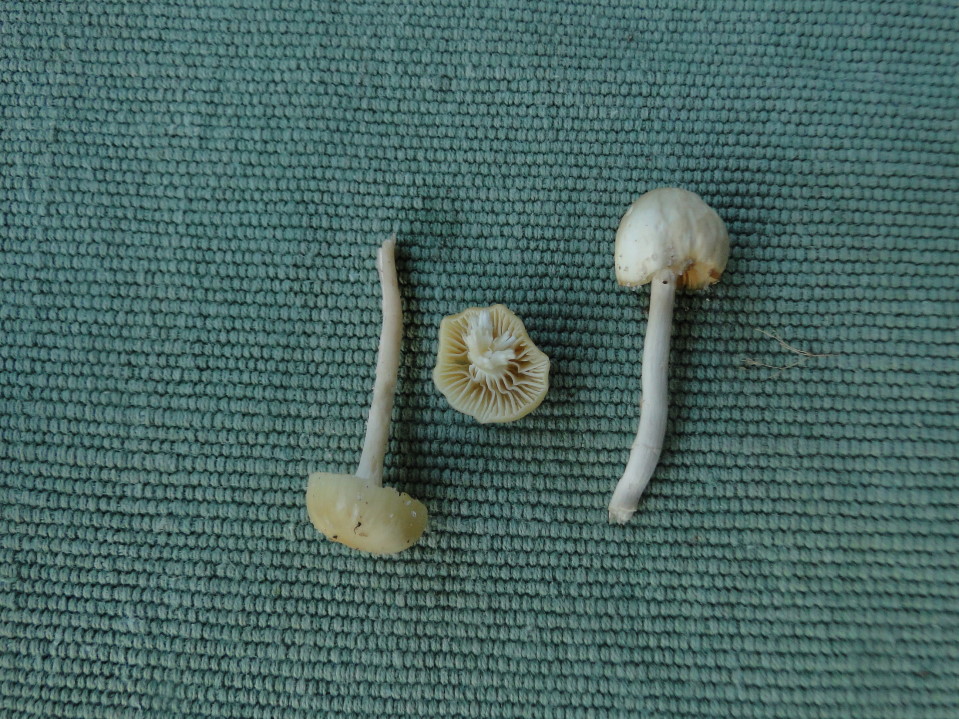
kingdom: Fungi
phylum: Basidiomycota
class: Agaricomycetes
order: Agaricales
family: Hygrophoraceae
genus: Cuphophyllus
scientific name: Cuphophyllus russocoriaceus
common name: ruslæder-vokshat
